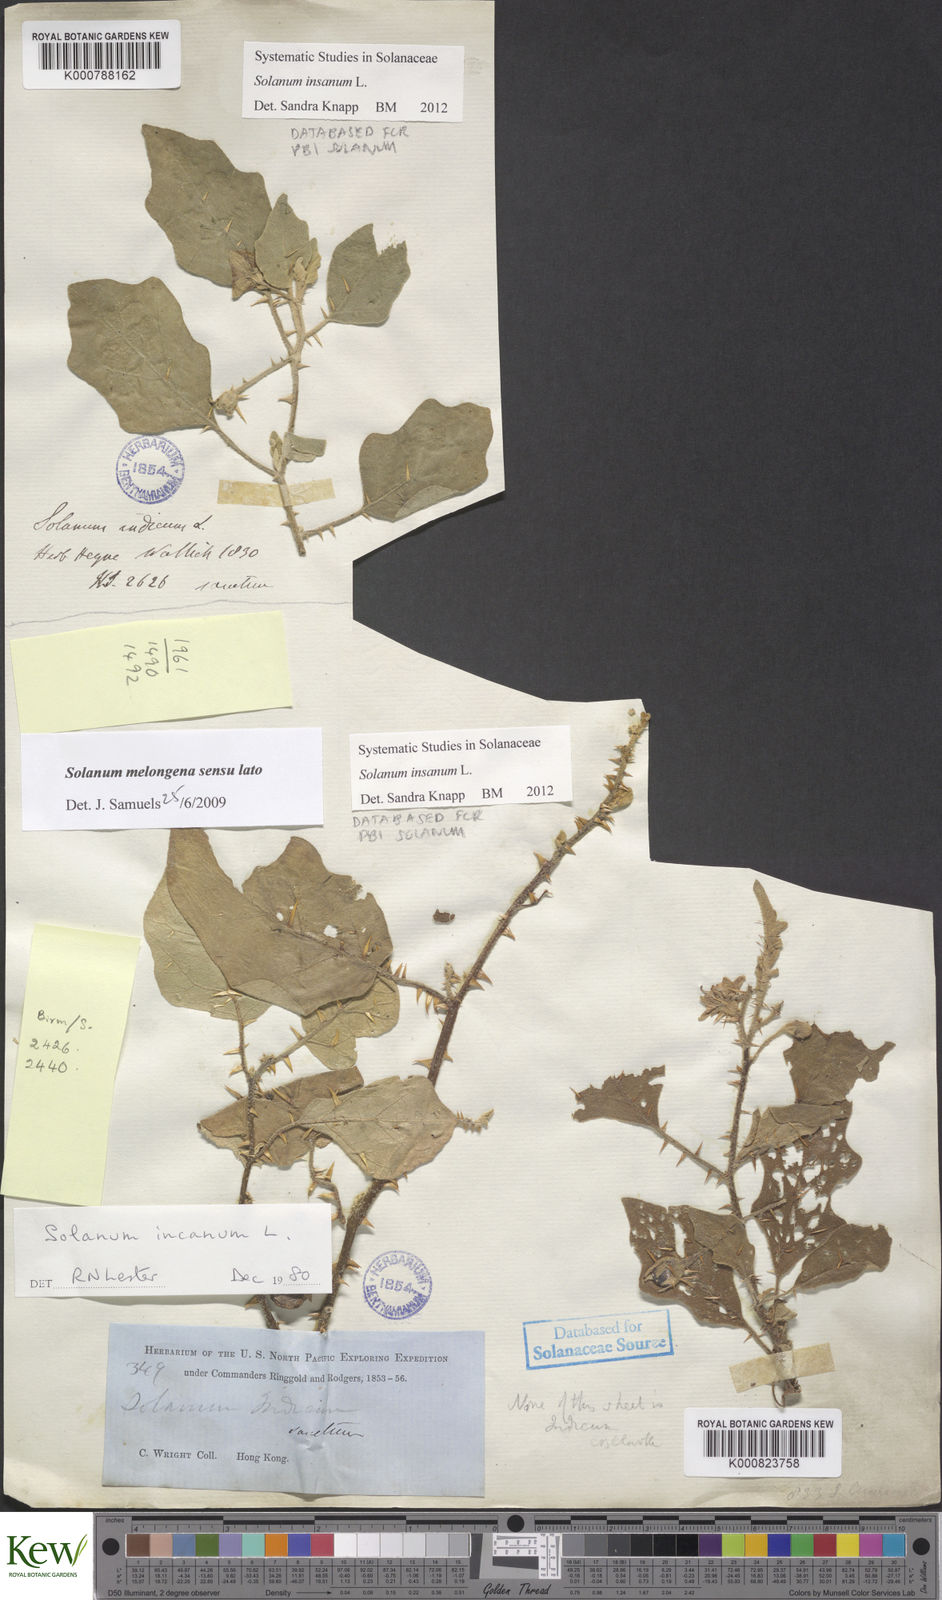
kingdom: Plantae
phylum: Tracheophyta
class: Magnoliopsida
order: Solanales
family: Solanaceae
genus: Solanum
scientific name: Solanum insanum
